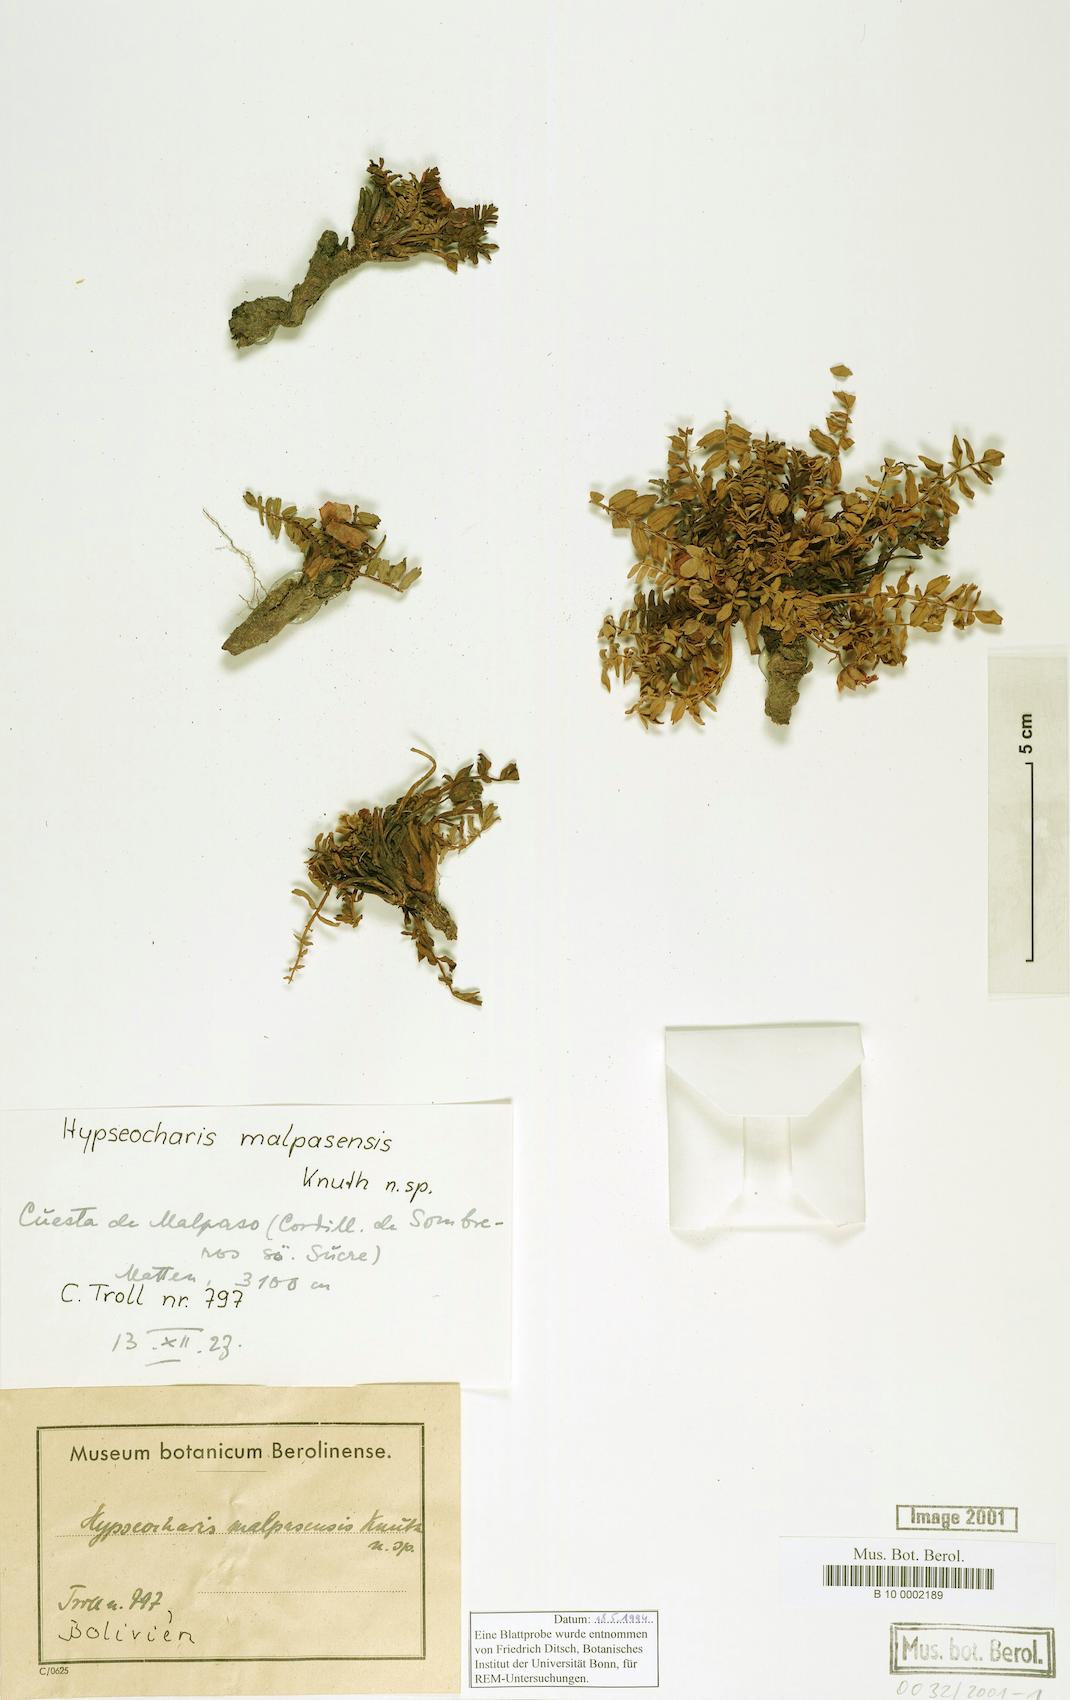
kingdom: Plantae
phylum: Tracheophyta
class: Magnoliopsida
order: Geraniales
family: Hypseocharitaceae
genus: Hypseocharis
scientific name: Hypseocharis pimpinellifolia
